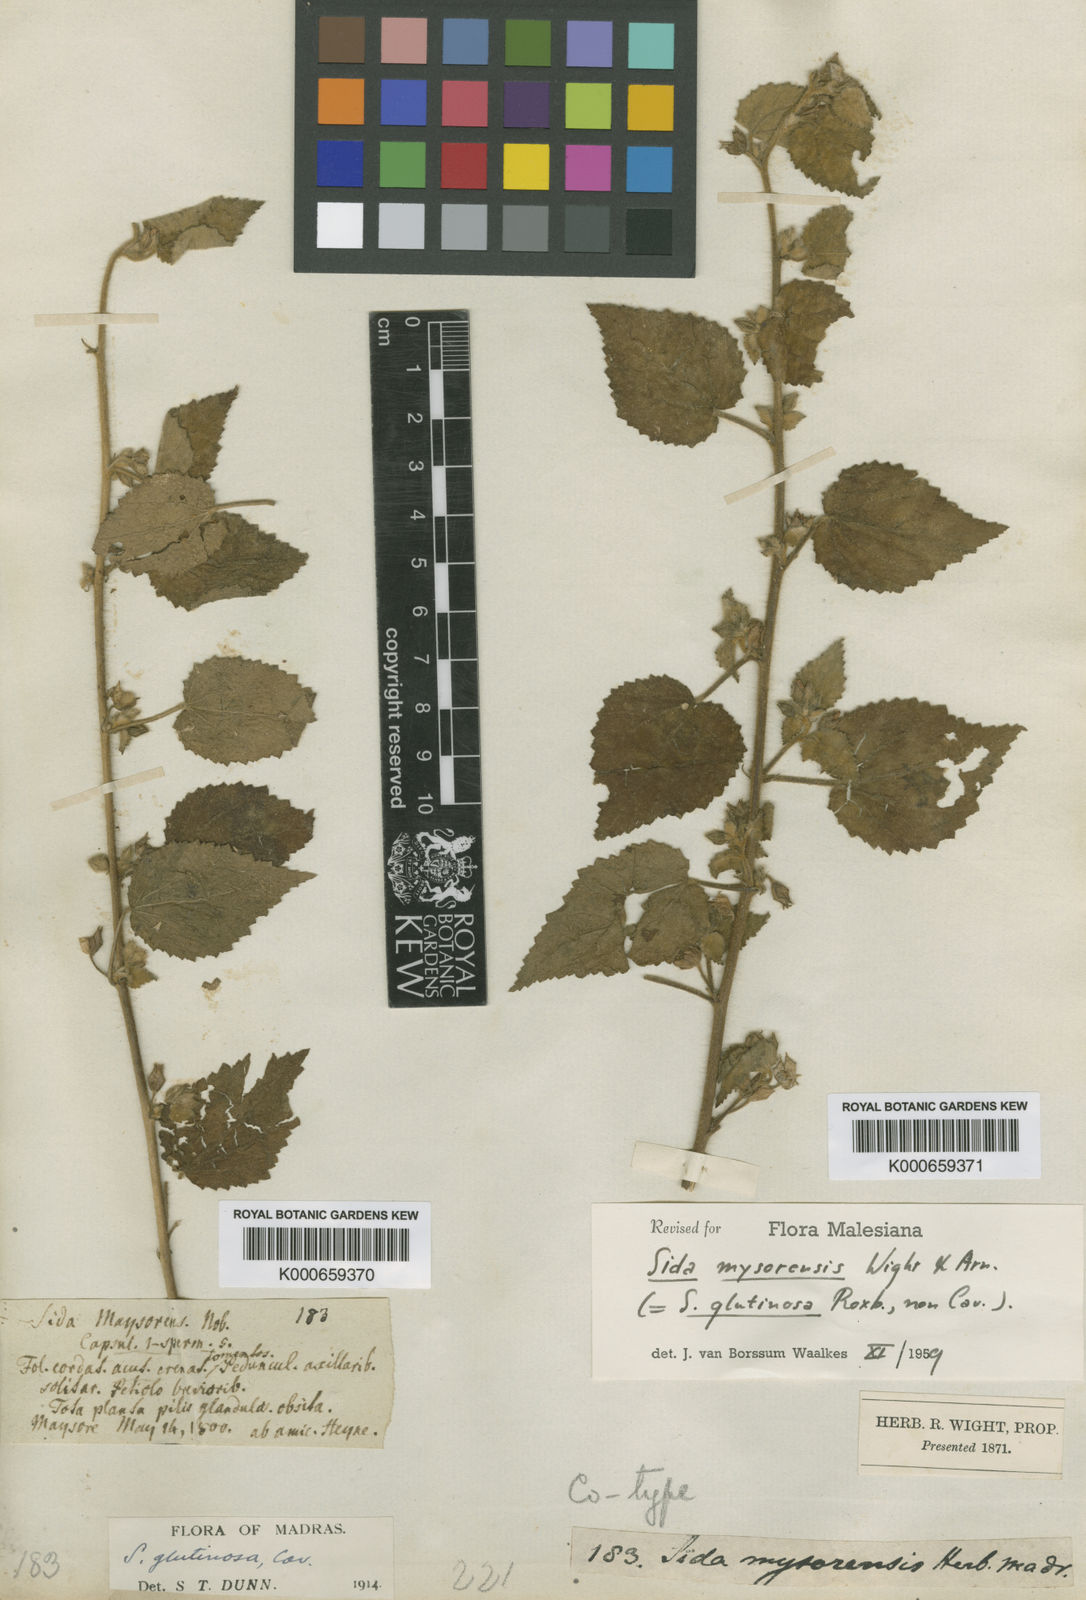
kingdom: Plantae
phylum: Tracheophyta
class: Magnoliopsida
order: Malvales
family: Malvaceae
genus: Sida
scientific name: Sida mysorensis
